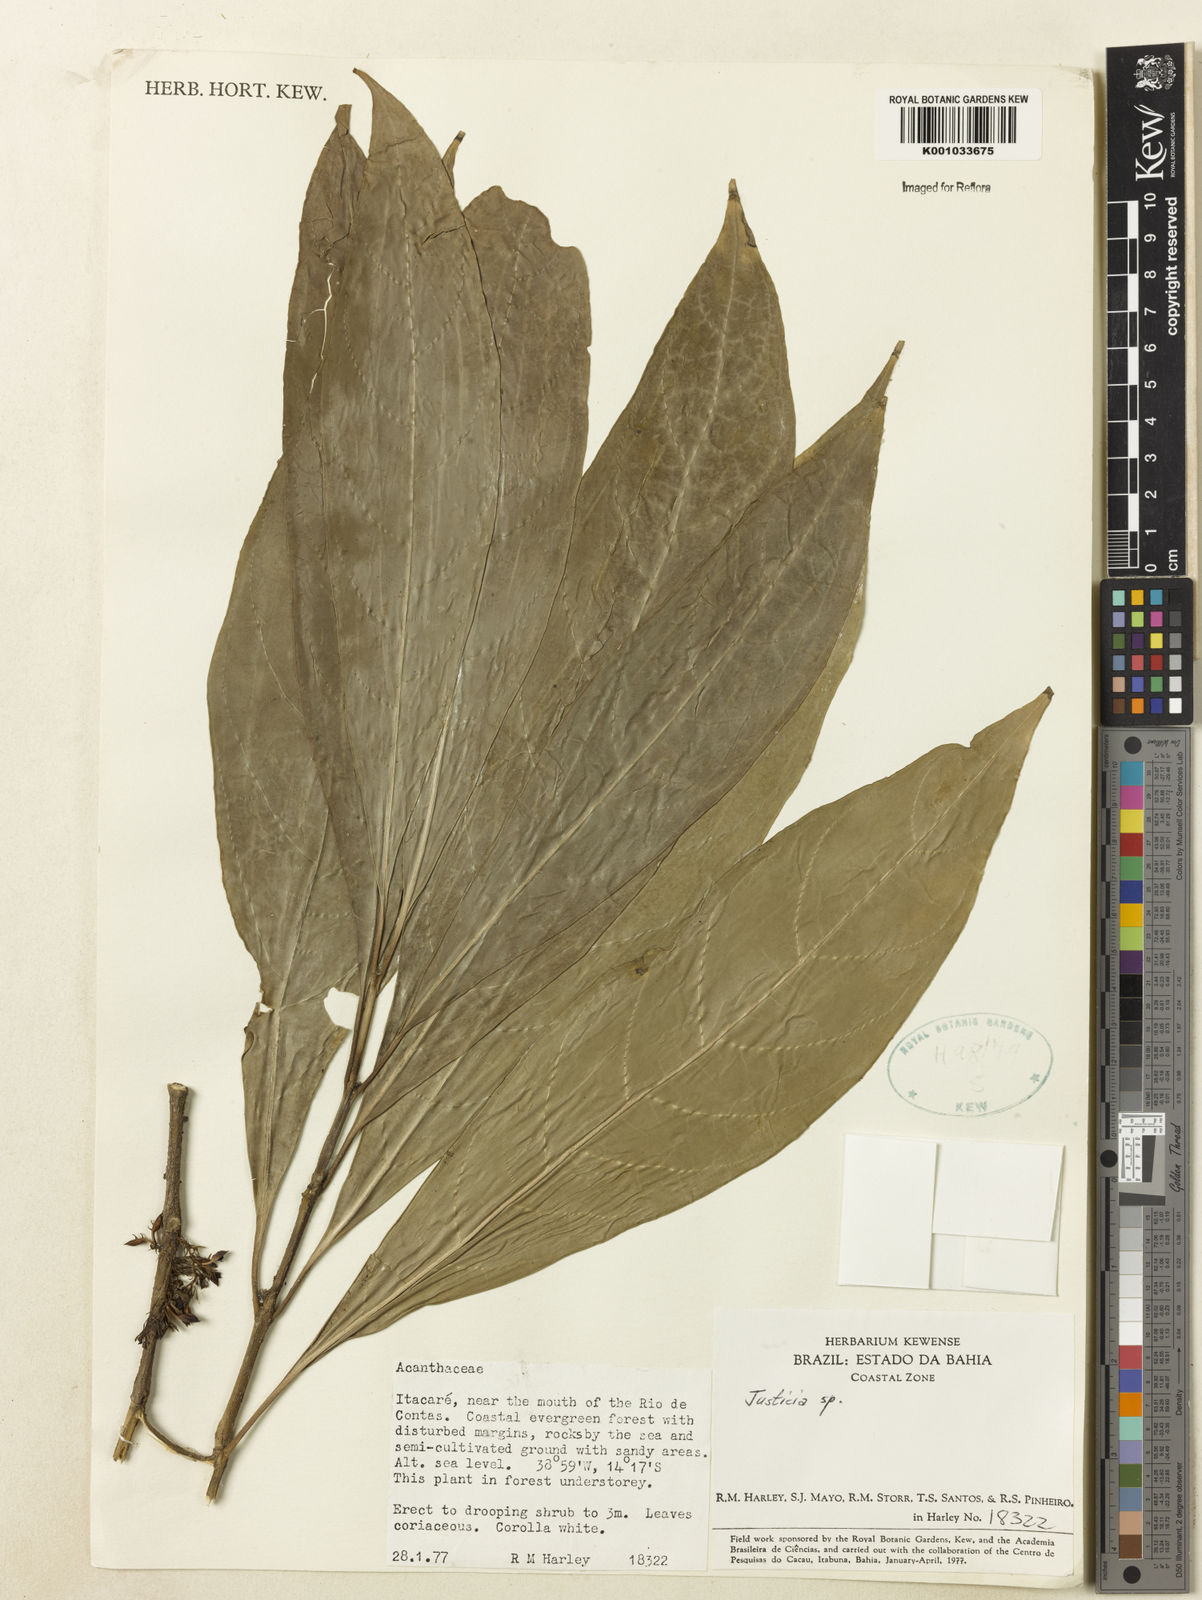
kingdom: Plantae
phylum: Tracheophyta
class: Magnoliopsida
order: Lamiales
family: Acanthaceae
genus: Justicia
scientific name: Justicia
